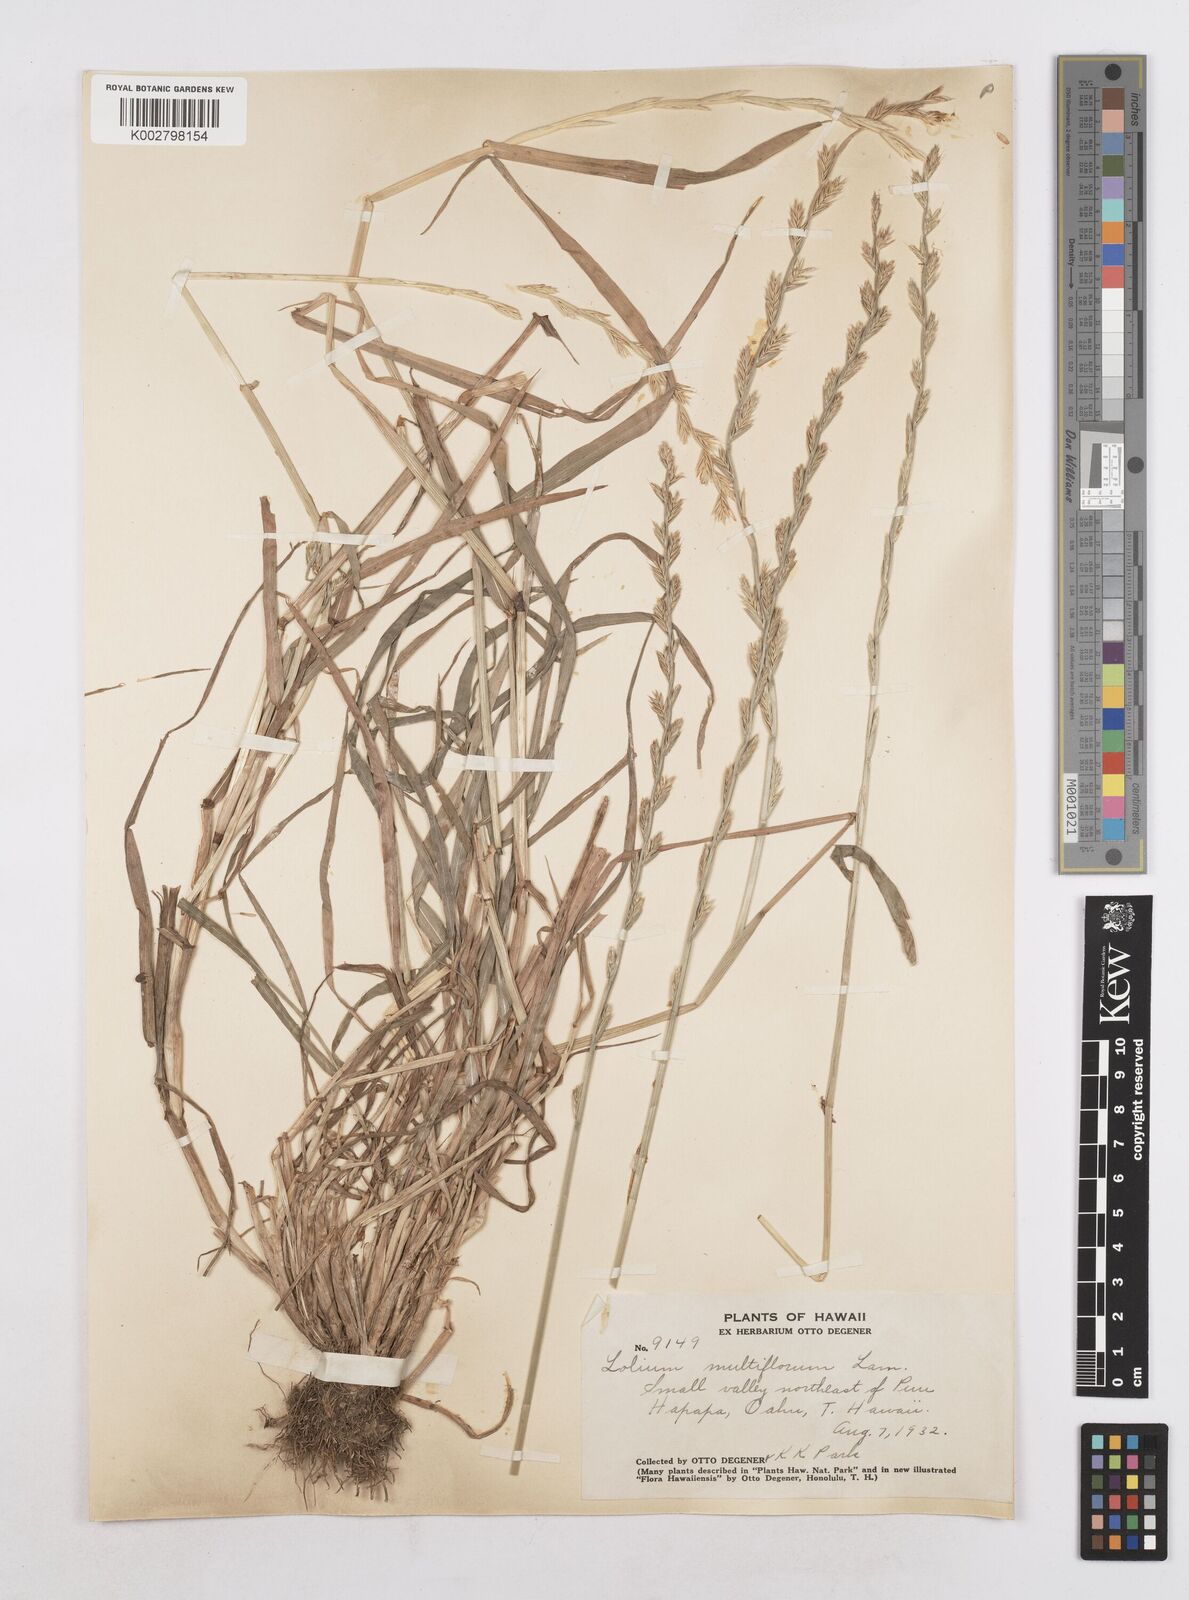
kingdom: Plantae
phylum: Tracheophyta
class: Liliopsida
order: Poales
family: Poaceae
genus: Lolium
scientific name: Lolium multiflorum
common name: Annual ryegrass
